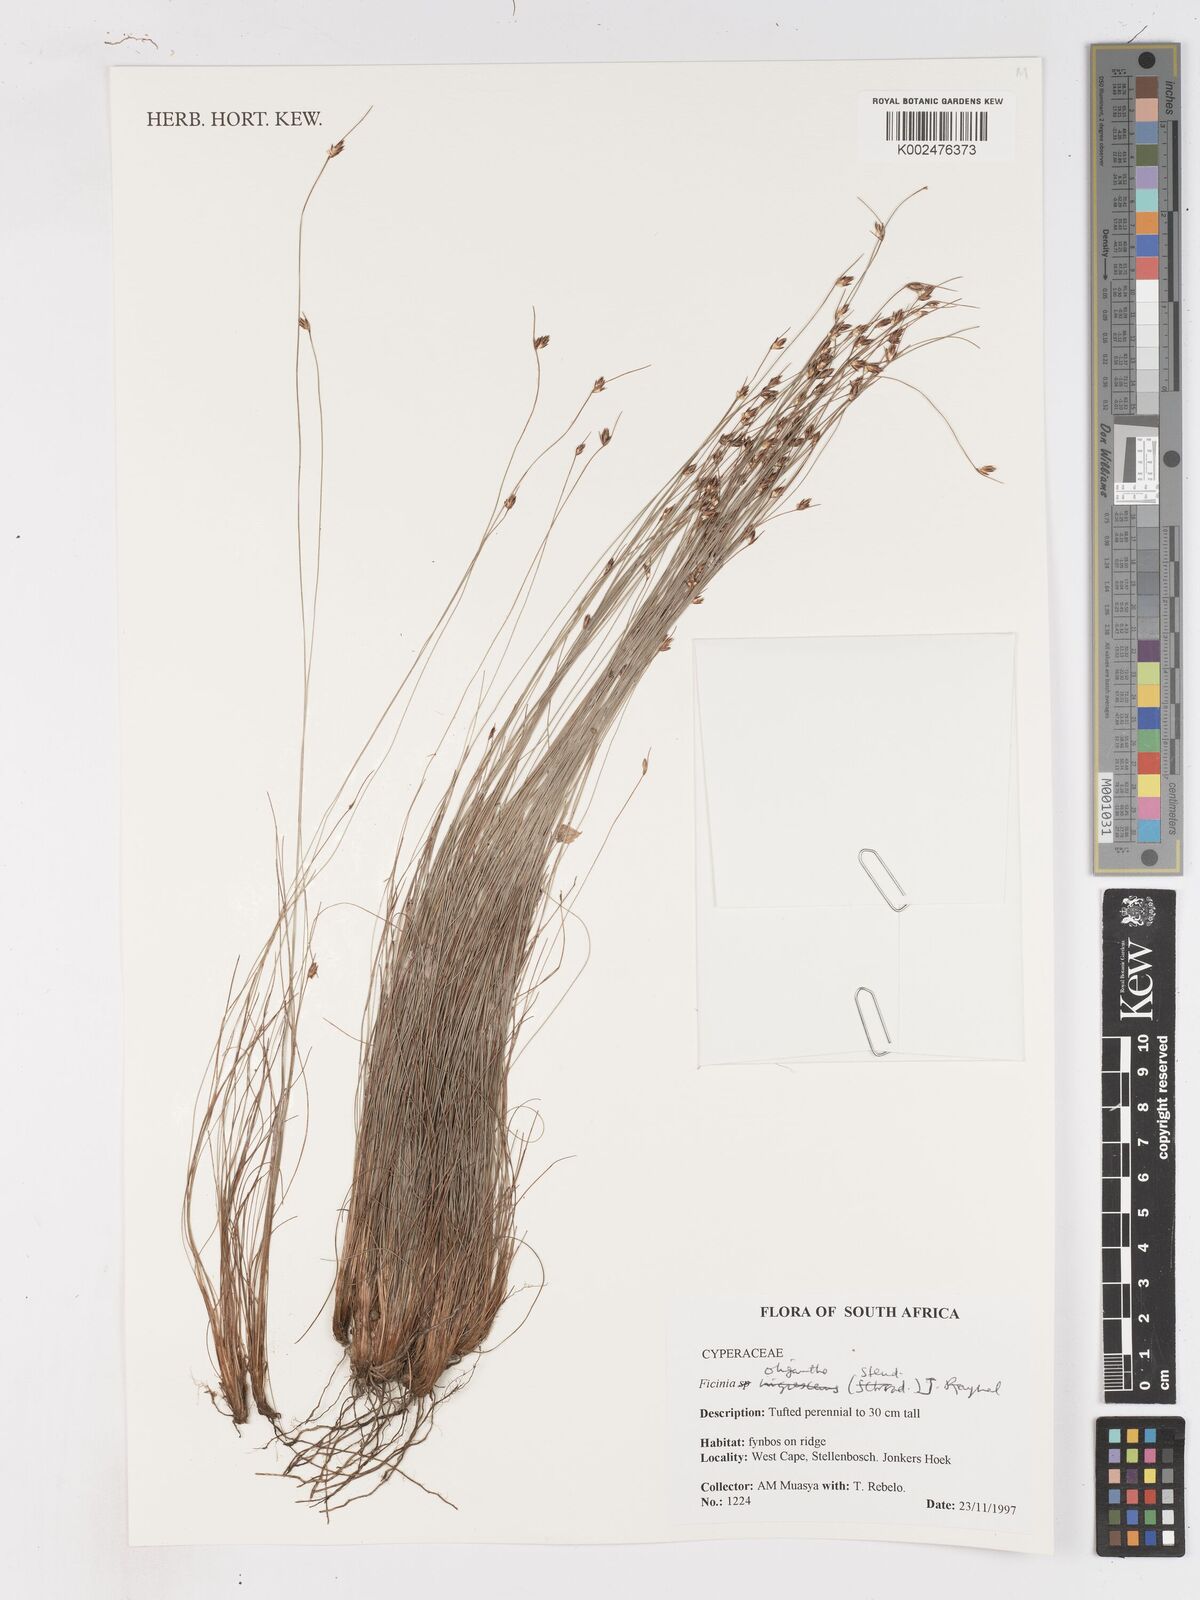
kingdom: Plantae
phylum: Tracheophyta
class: Liliopsida
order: Poales
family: Cyperaceae
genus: Ficinia
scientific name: Ficinia oligantha
